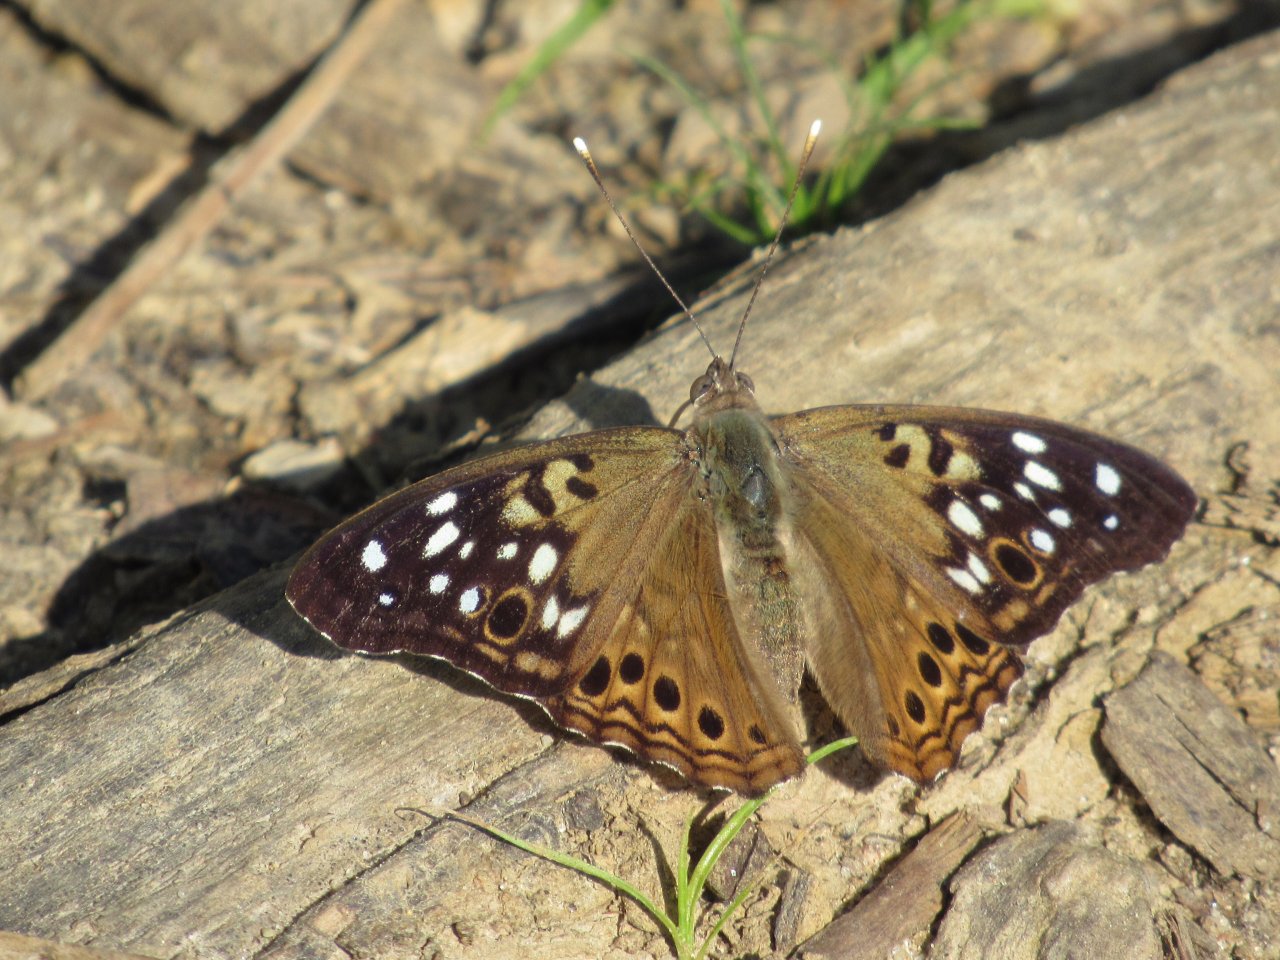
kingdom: Animalia
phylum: Arthropoda
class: Insecta
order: Lepidoptera
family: Nymphalidae
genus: Asterocampa
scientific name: Asterocampa celtis
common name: Hackberry Emperor
